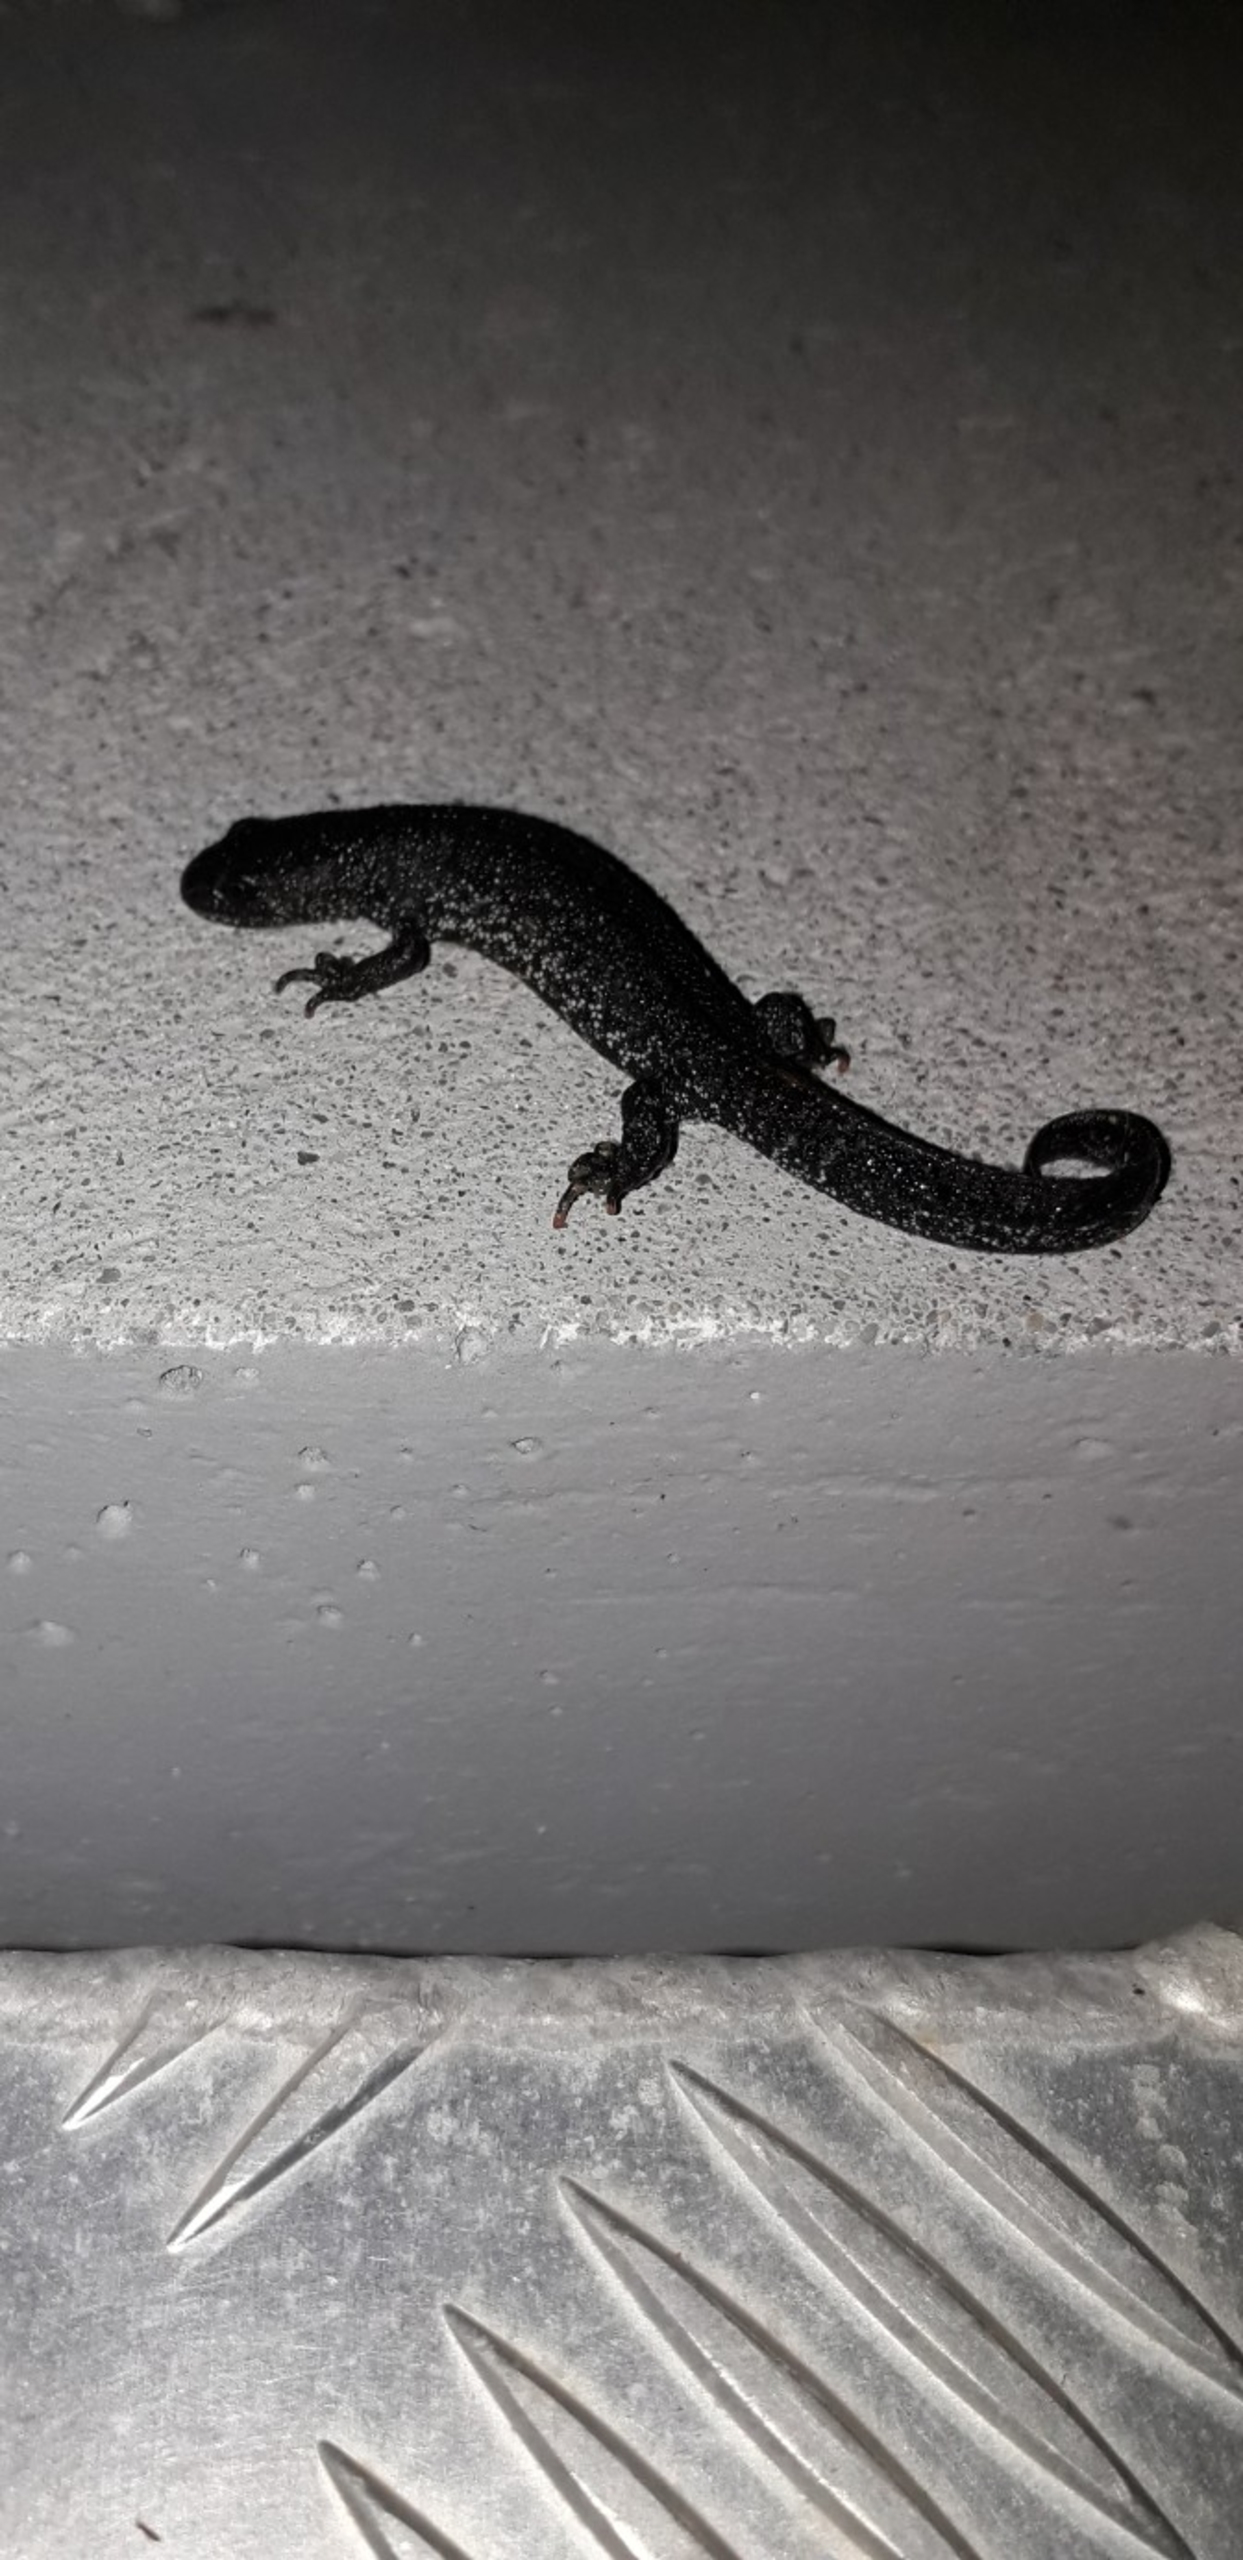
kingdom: Animalia
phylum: Chordata
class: Amphibia
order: Caudata
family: Salamandridae
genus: Triturus
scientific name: Triturus cristatus
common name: Stor vandsalamander
